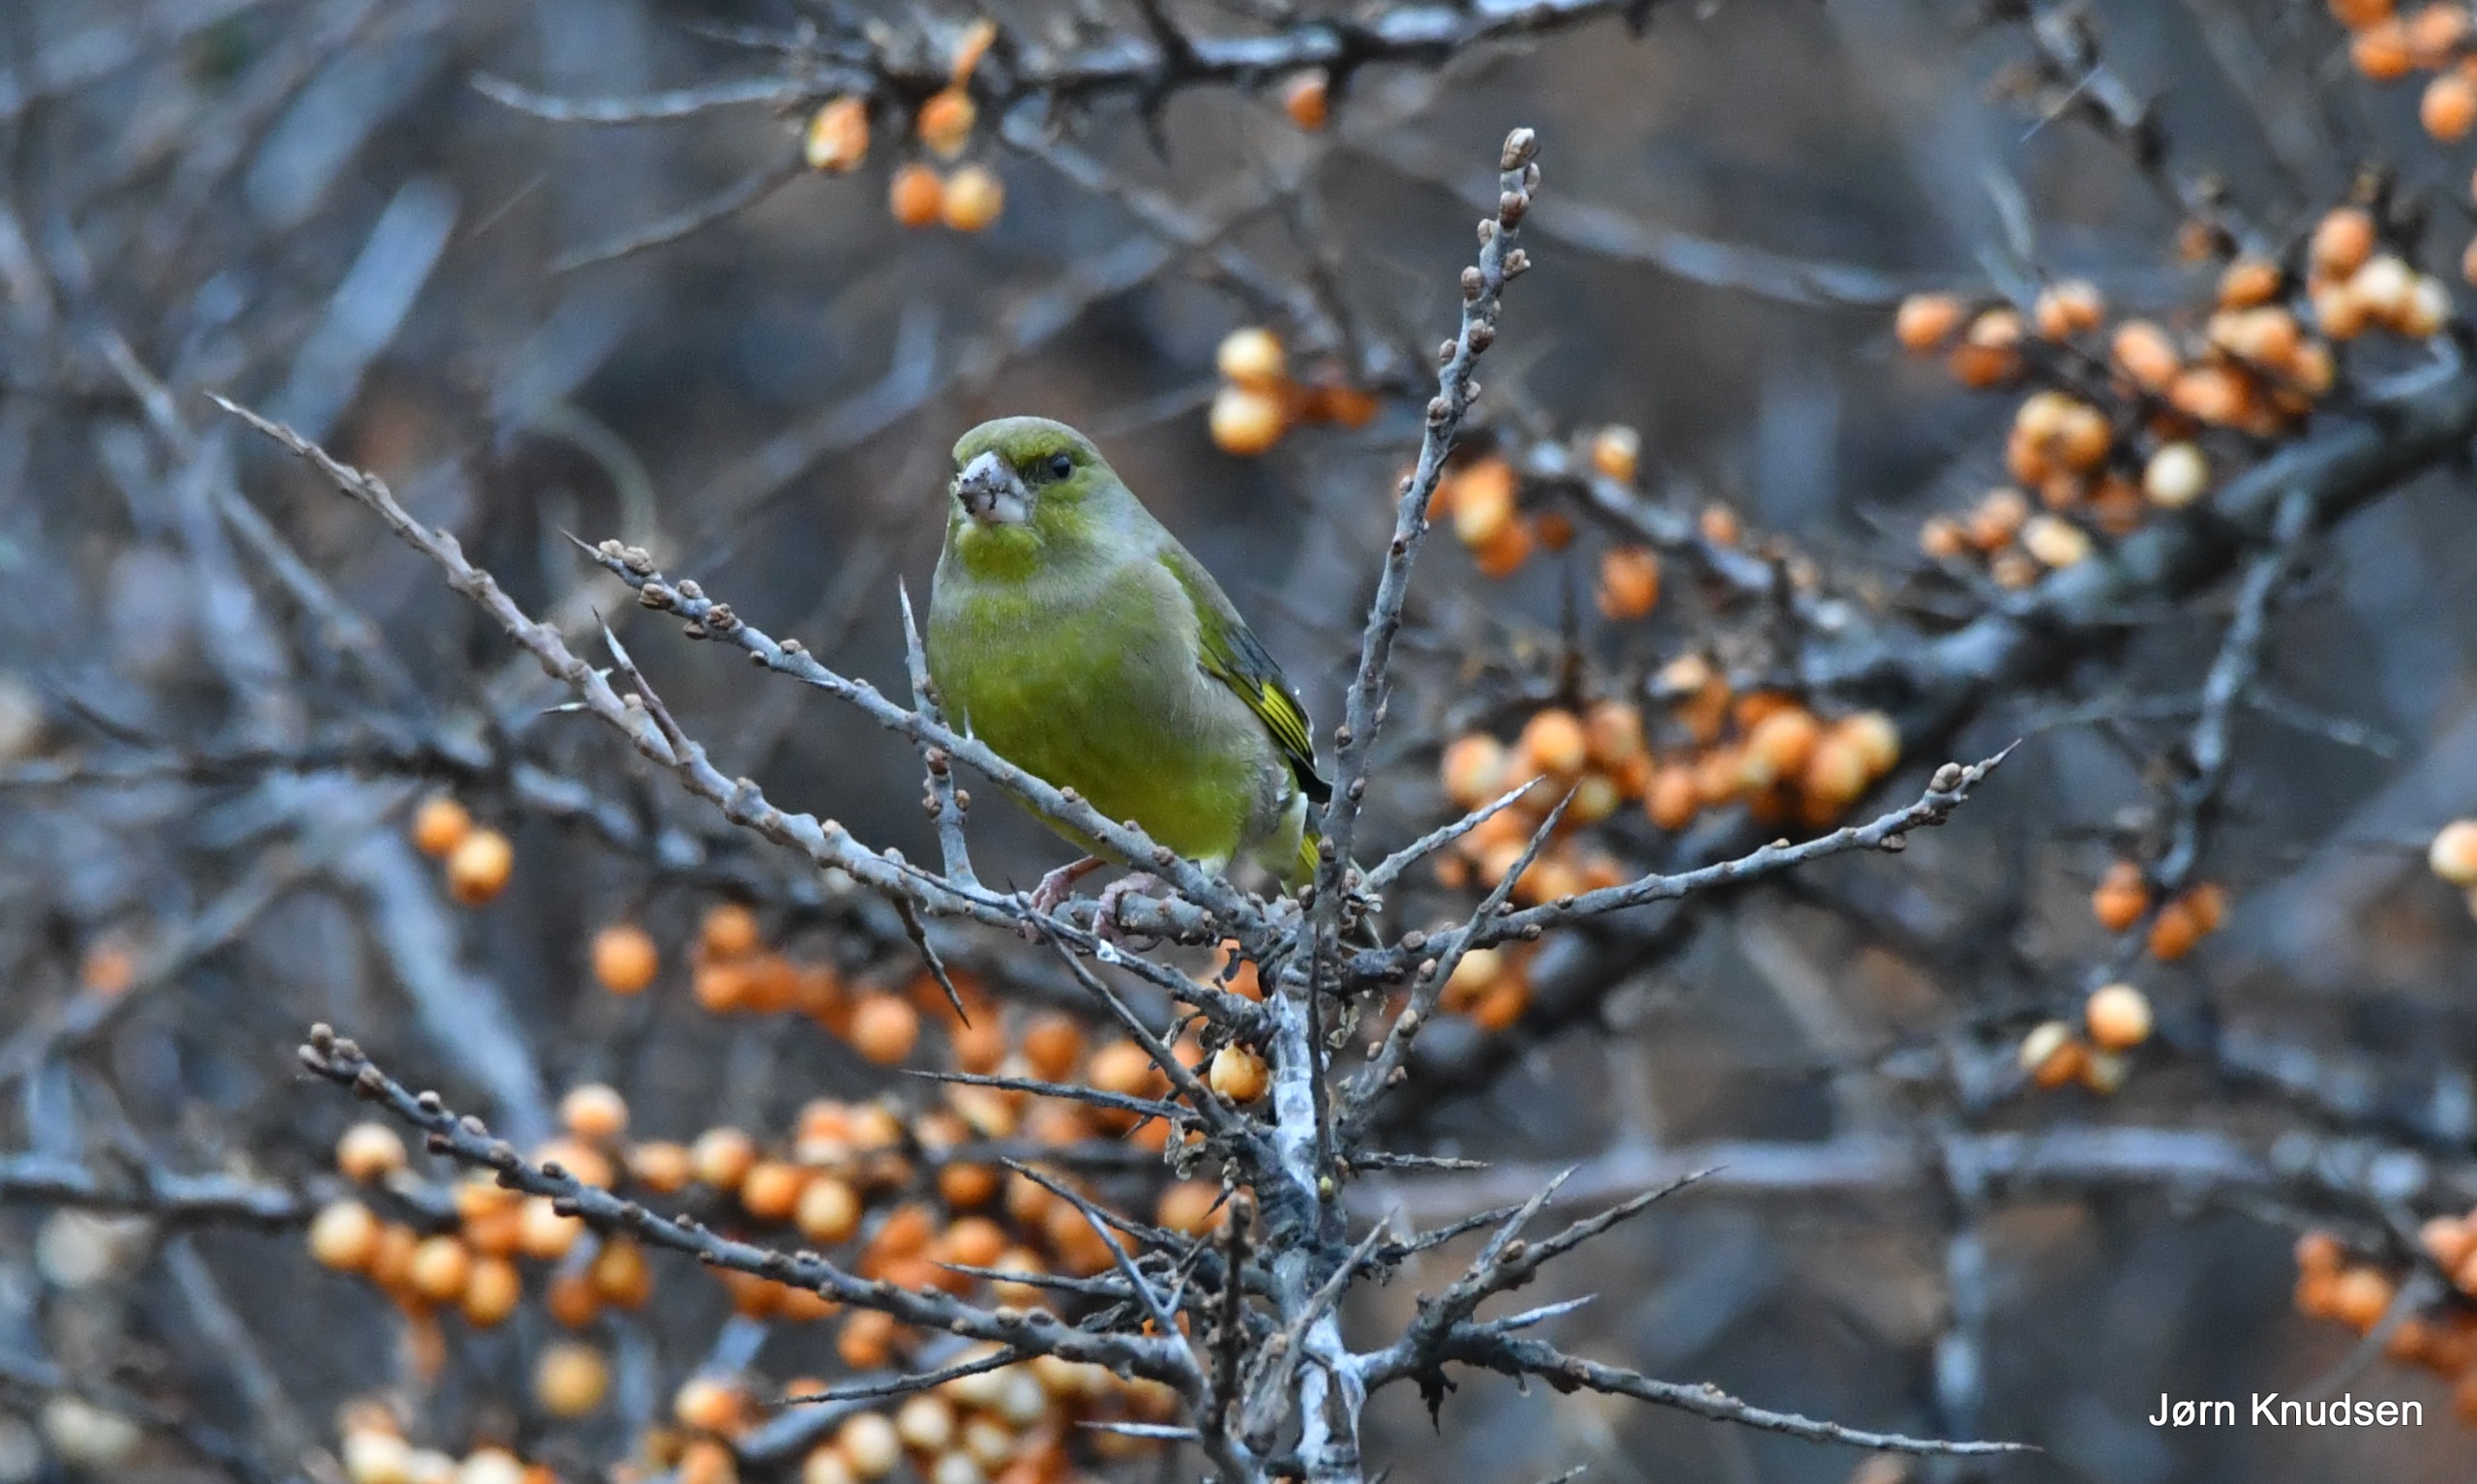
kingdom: Plantae
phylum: Tracheophyta
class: Liliopsida
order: Poales
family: Poaceae
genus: Chloris
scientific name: Chloris chloris
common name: Grønirisk
